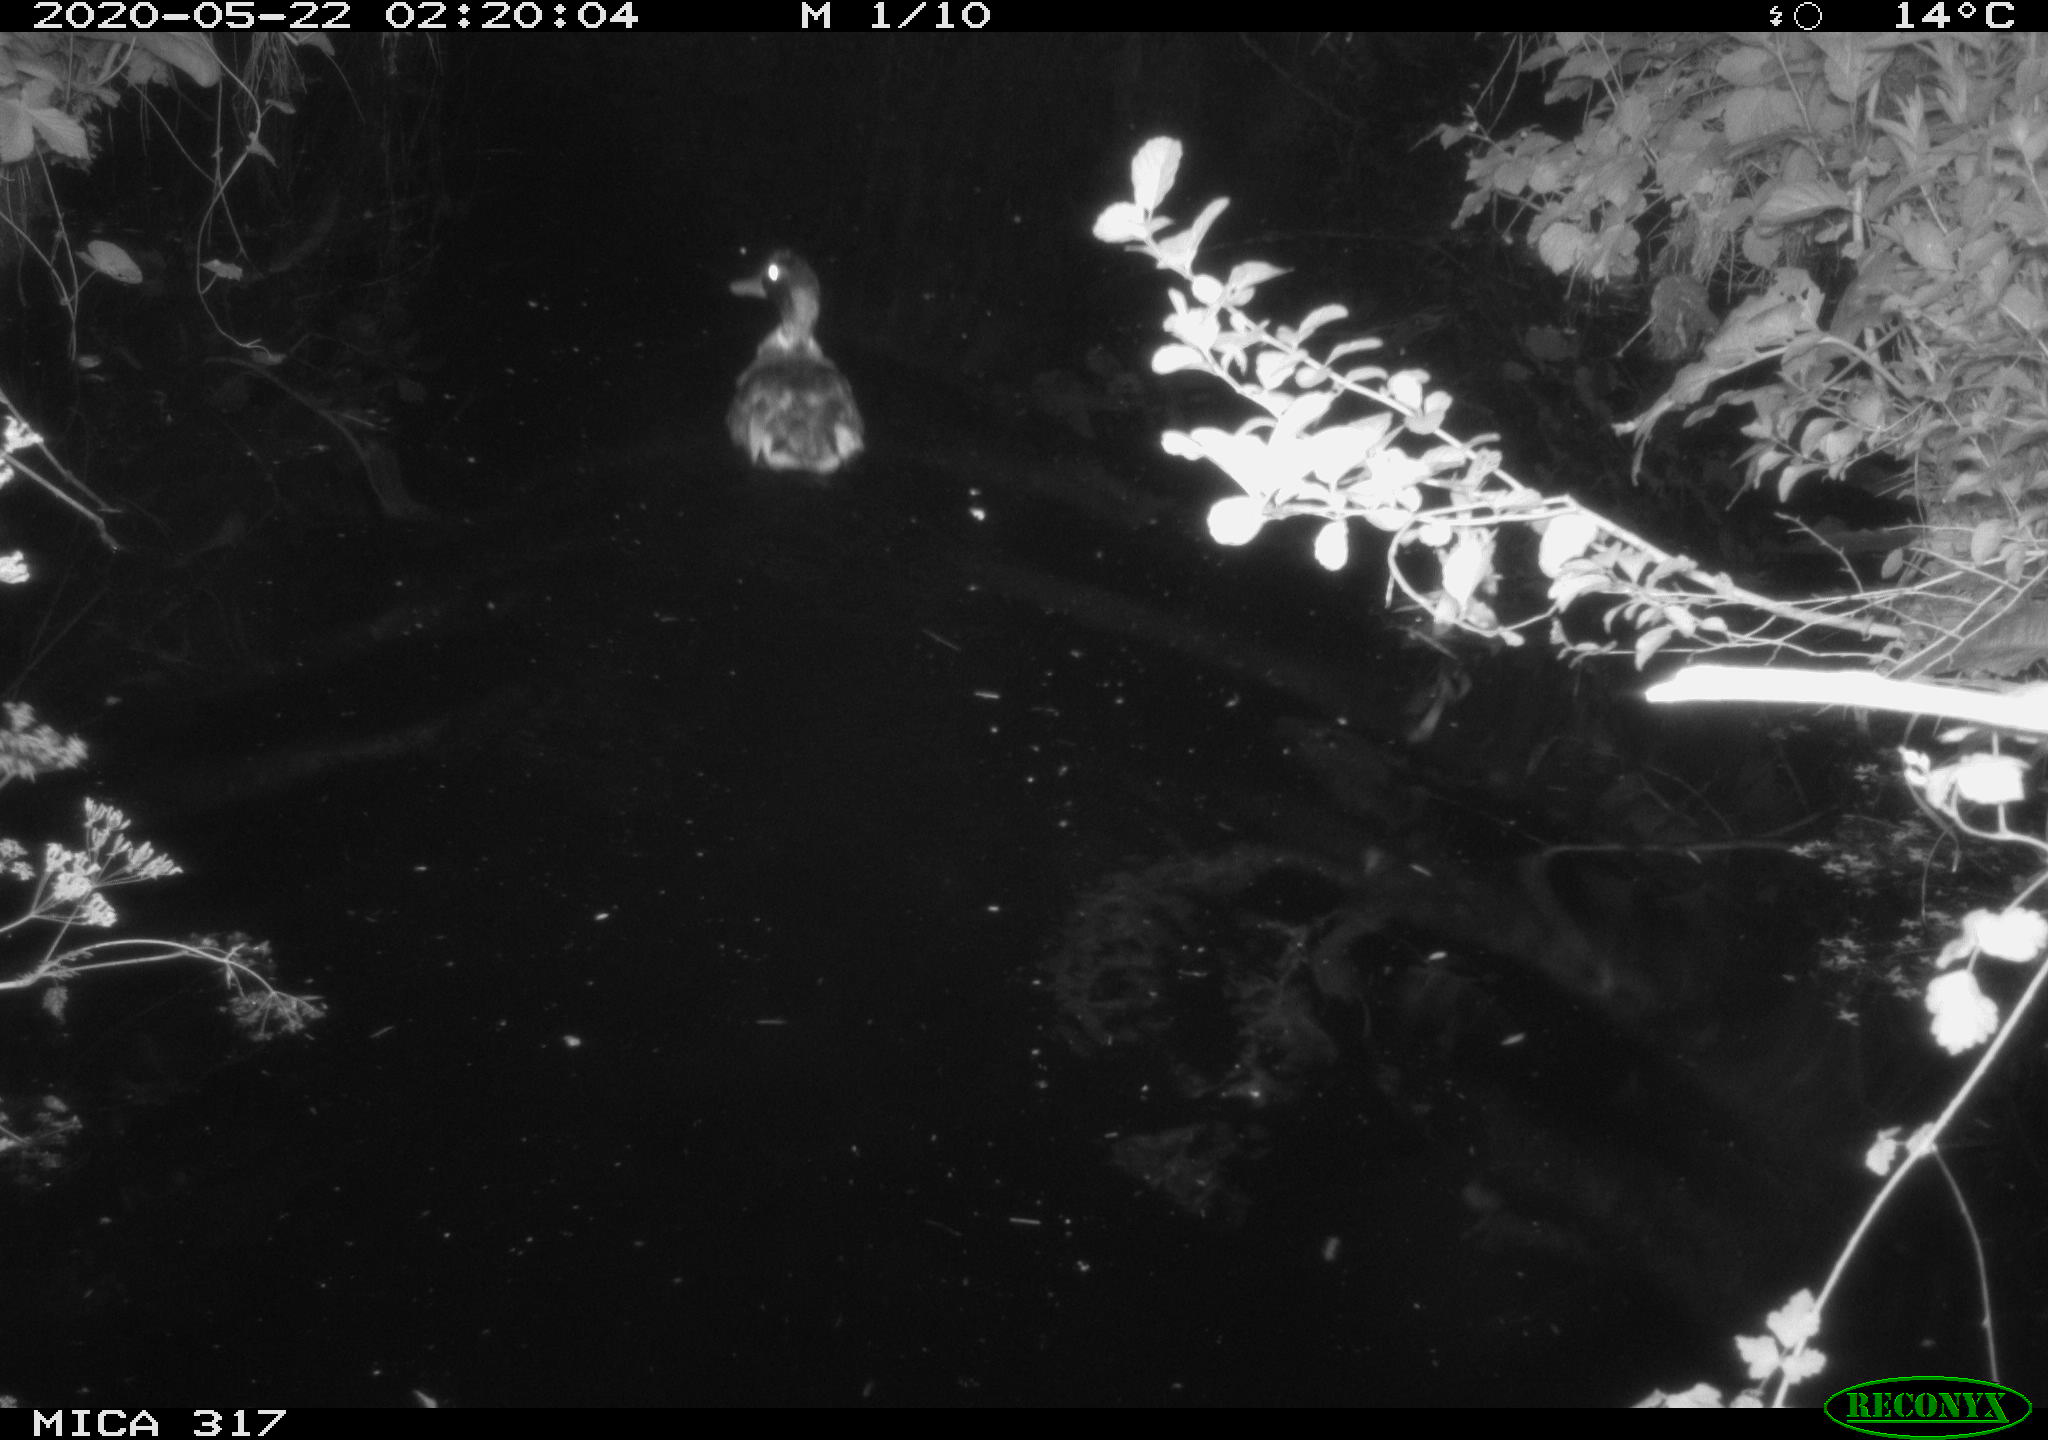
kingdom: Animalia
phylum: Chordata
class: Aves
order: Anseriformes
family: Anatidae
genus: Anas
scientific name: Anas platyrhynchos
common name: Mallard
